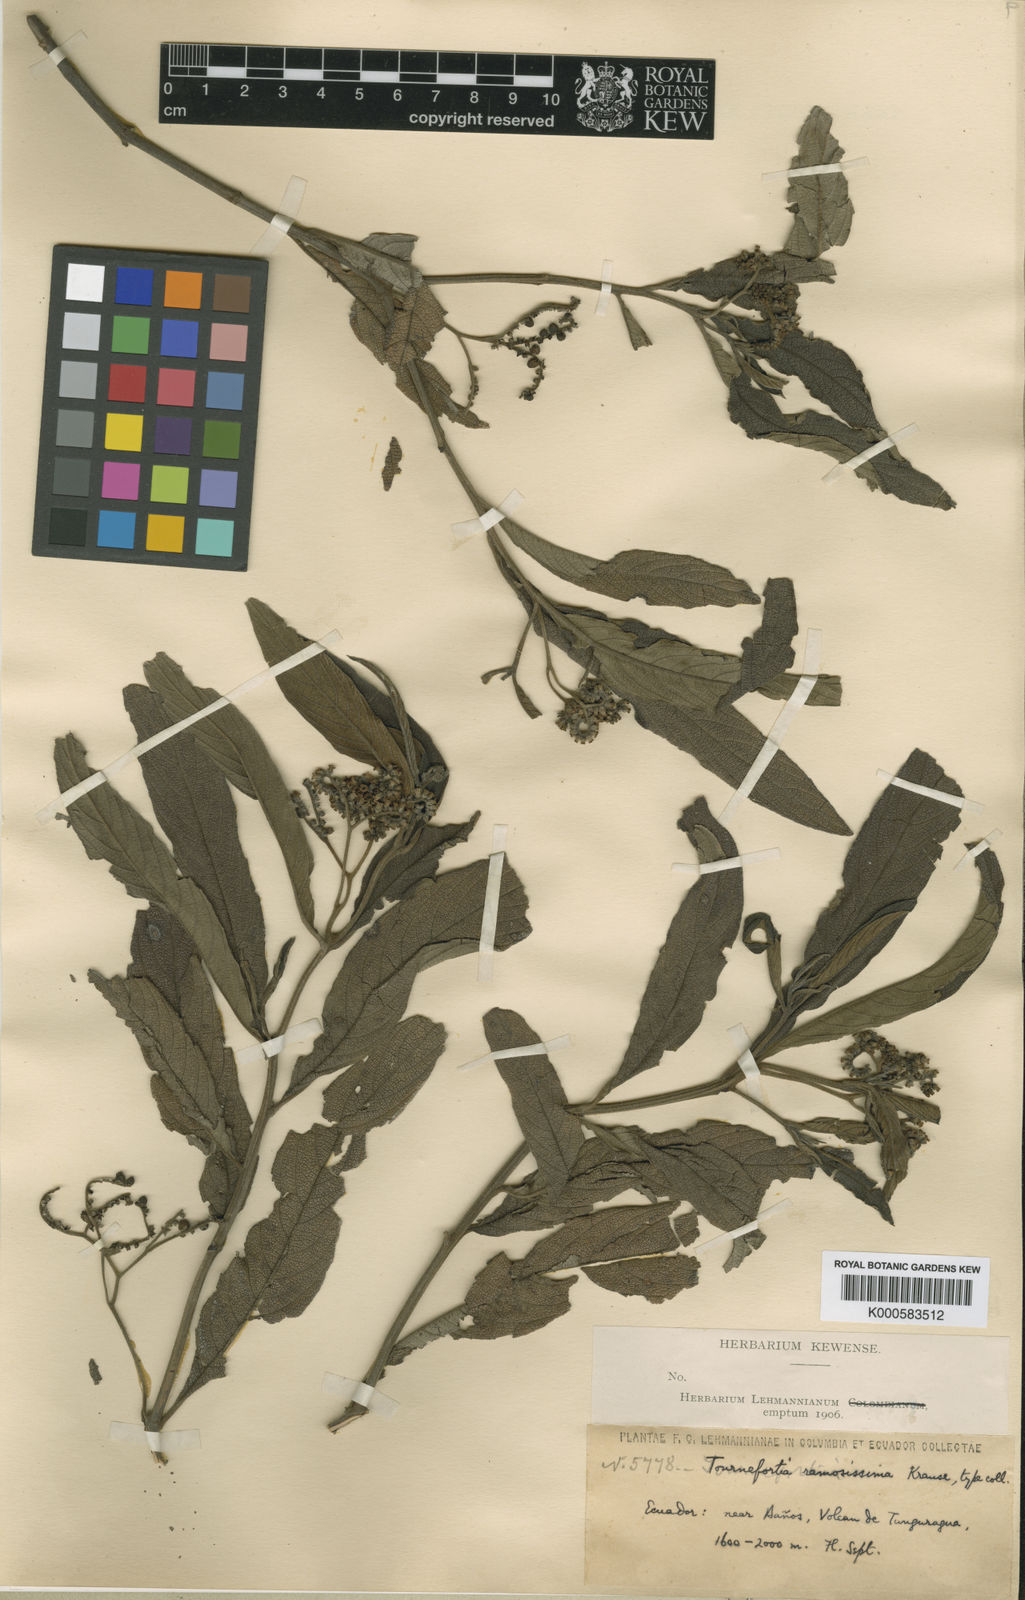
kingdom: Plantae
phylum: Tracheophyta
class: Magnoliopsida
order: Boraginales
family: Heliotropiaceae
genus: Tournefortia
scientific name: Tournefortia ramosissima
